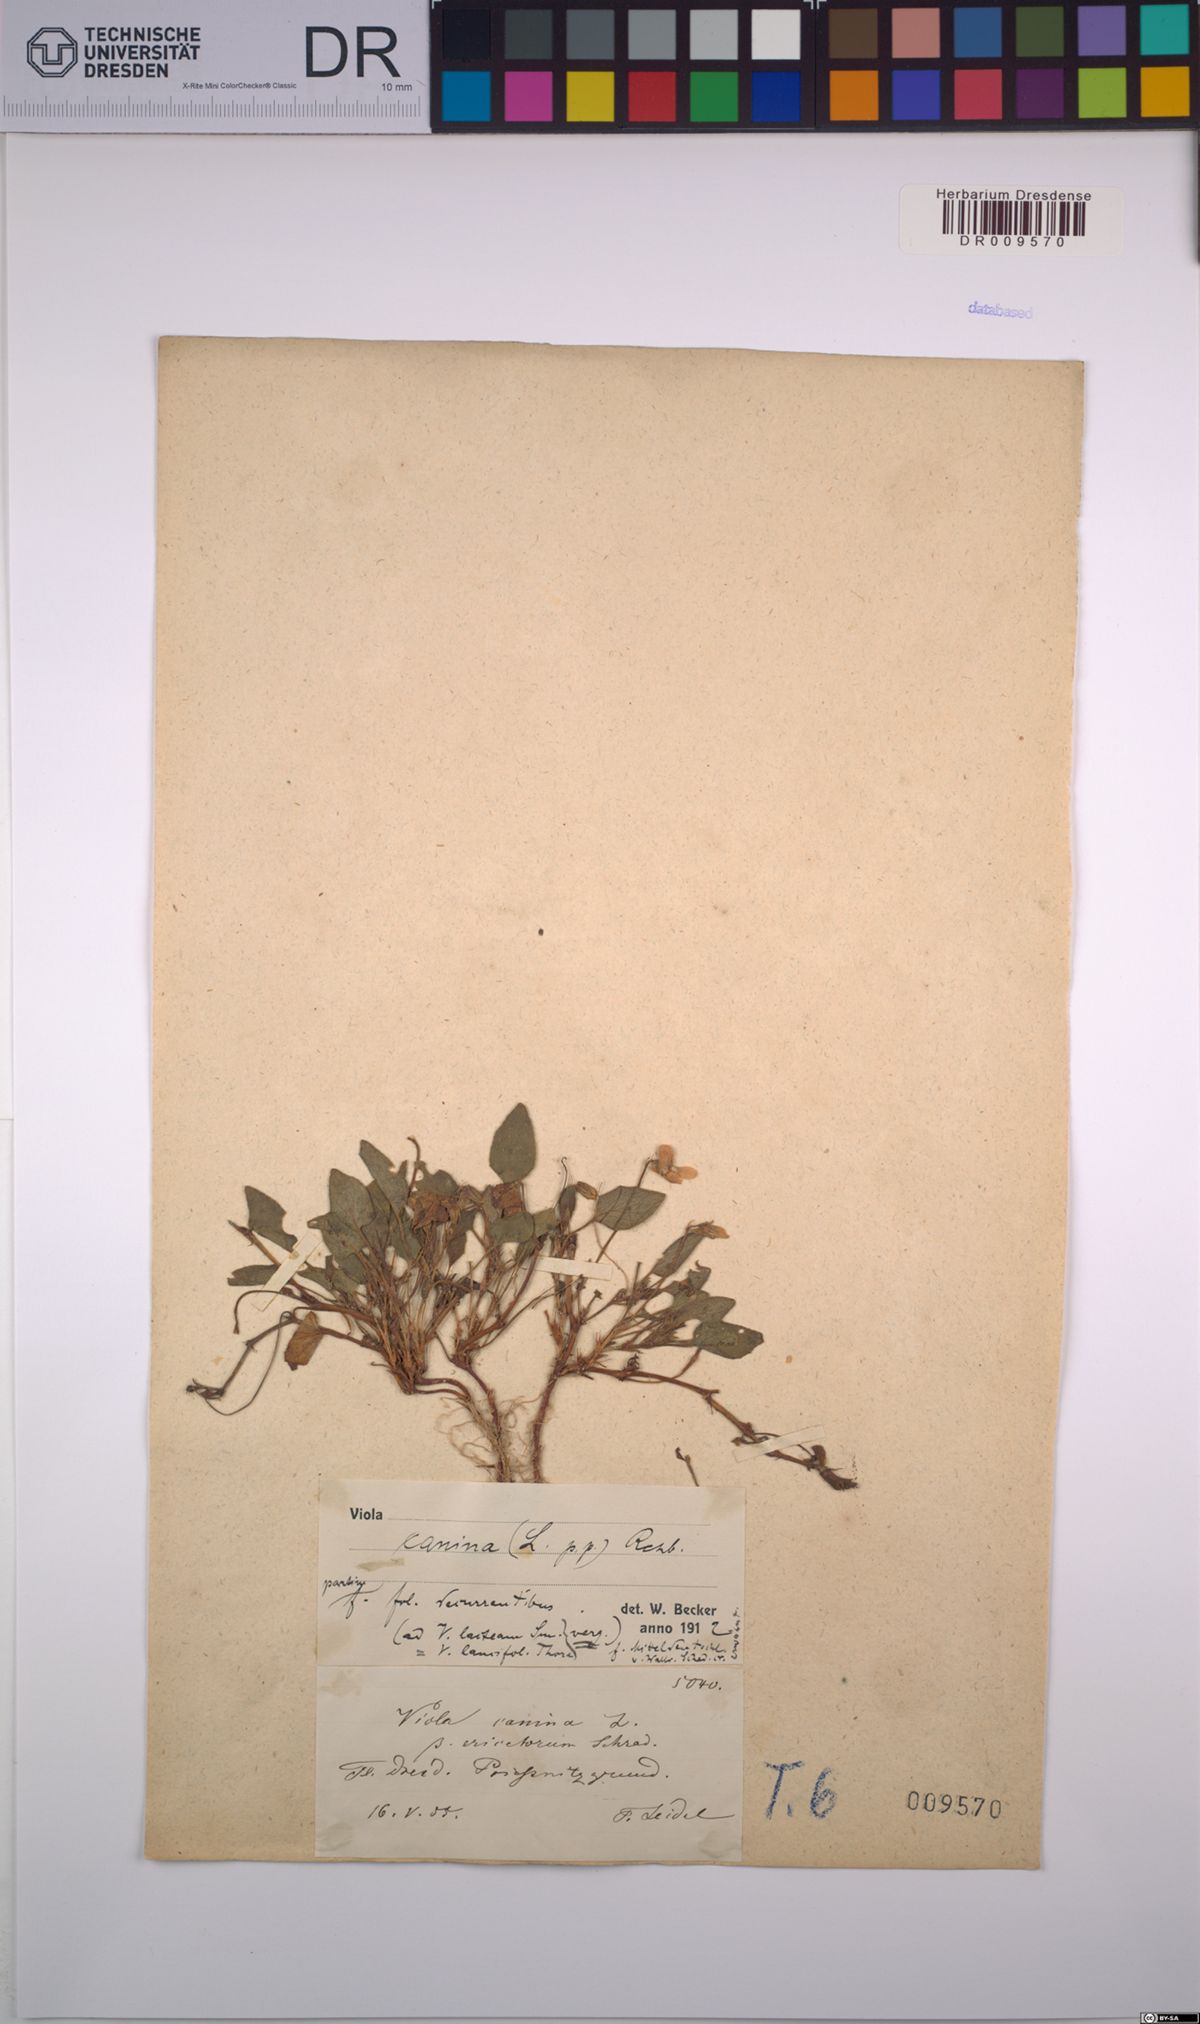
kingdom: Plantae
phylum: Tracheophyta
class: Magnoliopsida
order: Malpighiales
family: Violaceae
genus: Viola
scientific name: Viola canina
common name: Heath dog-violet
